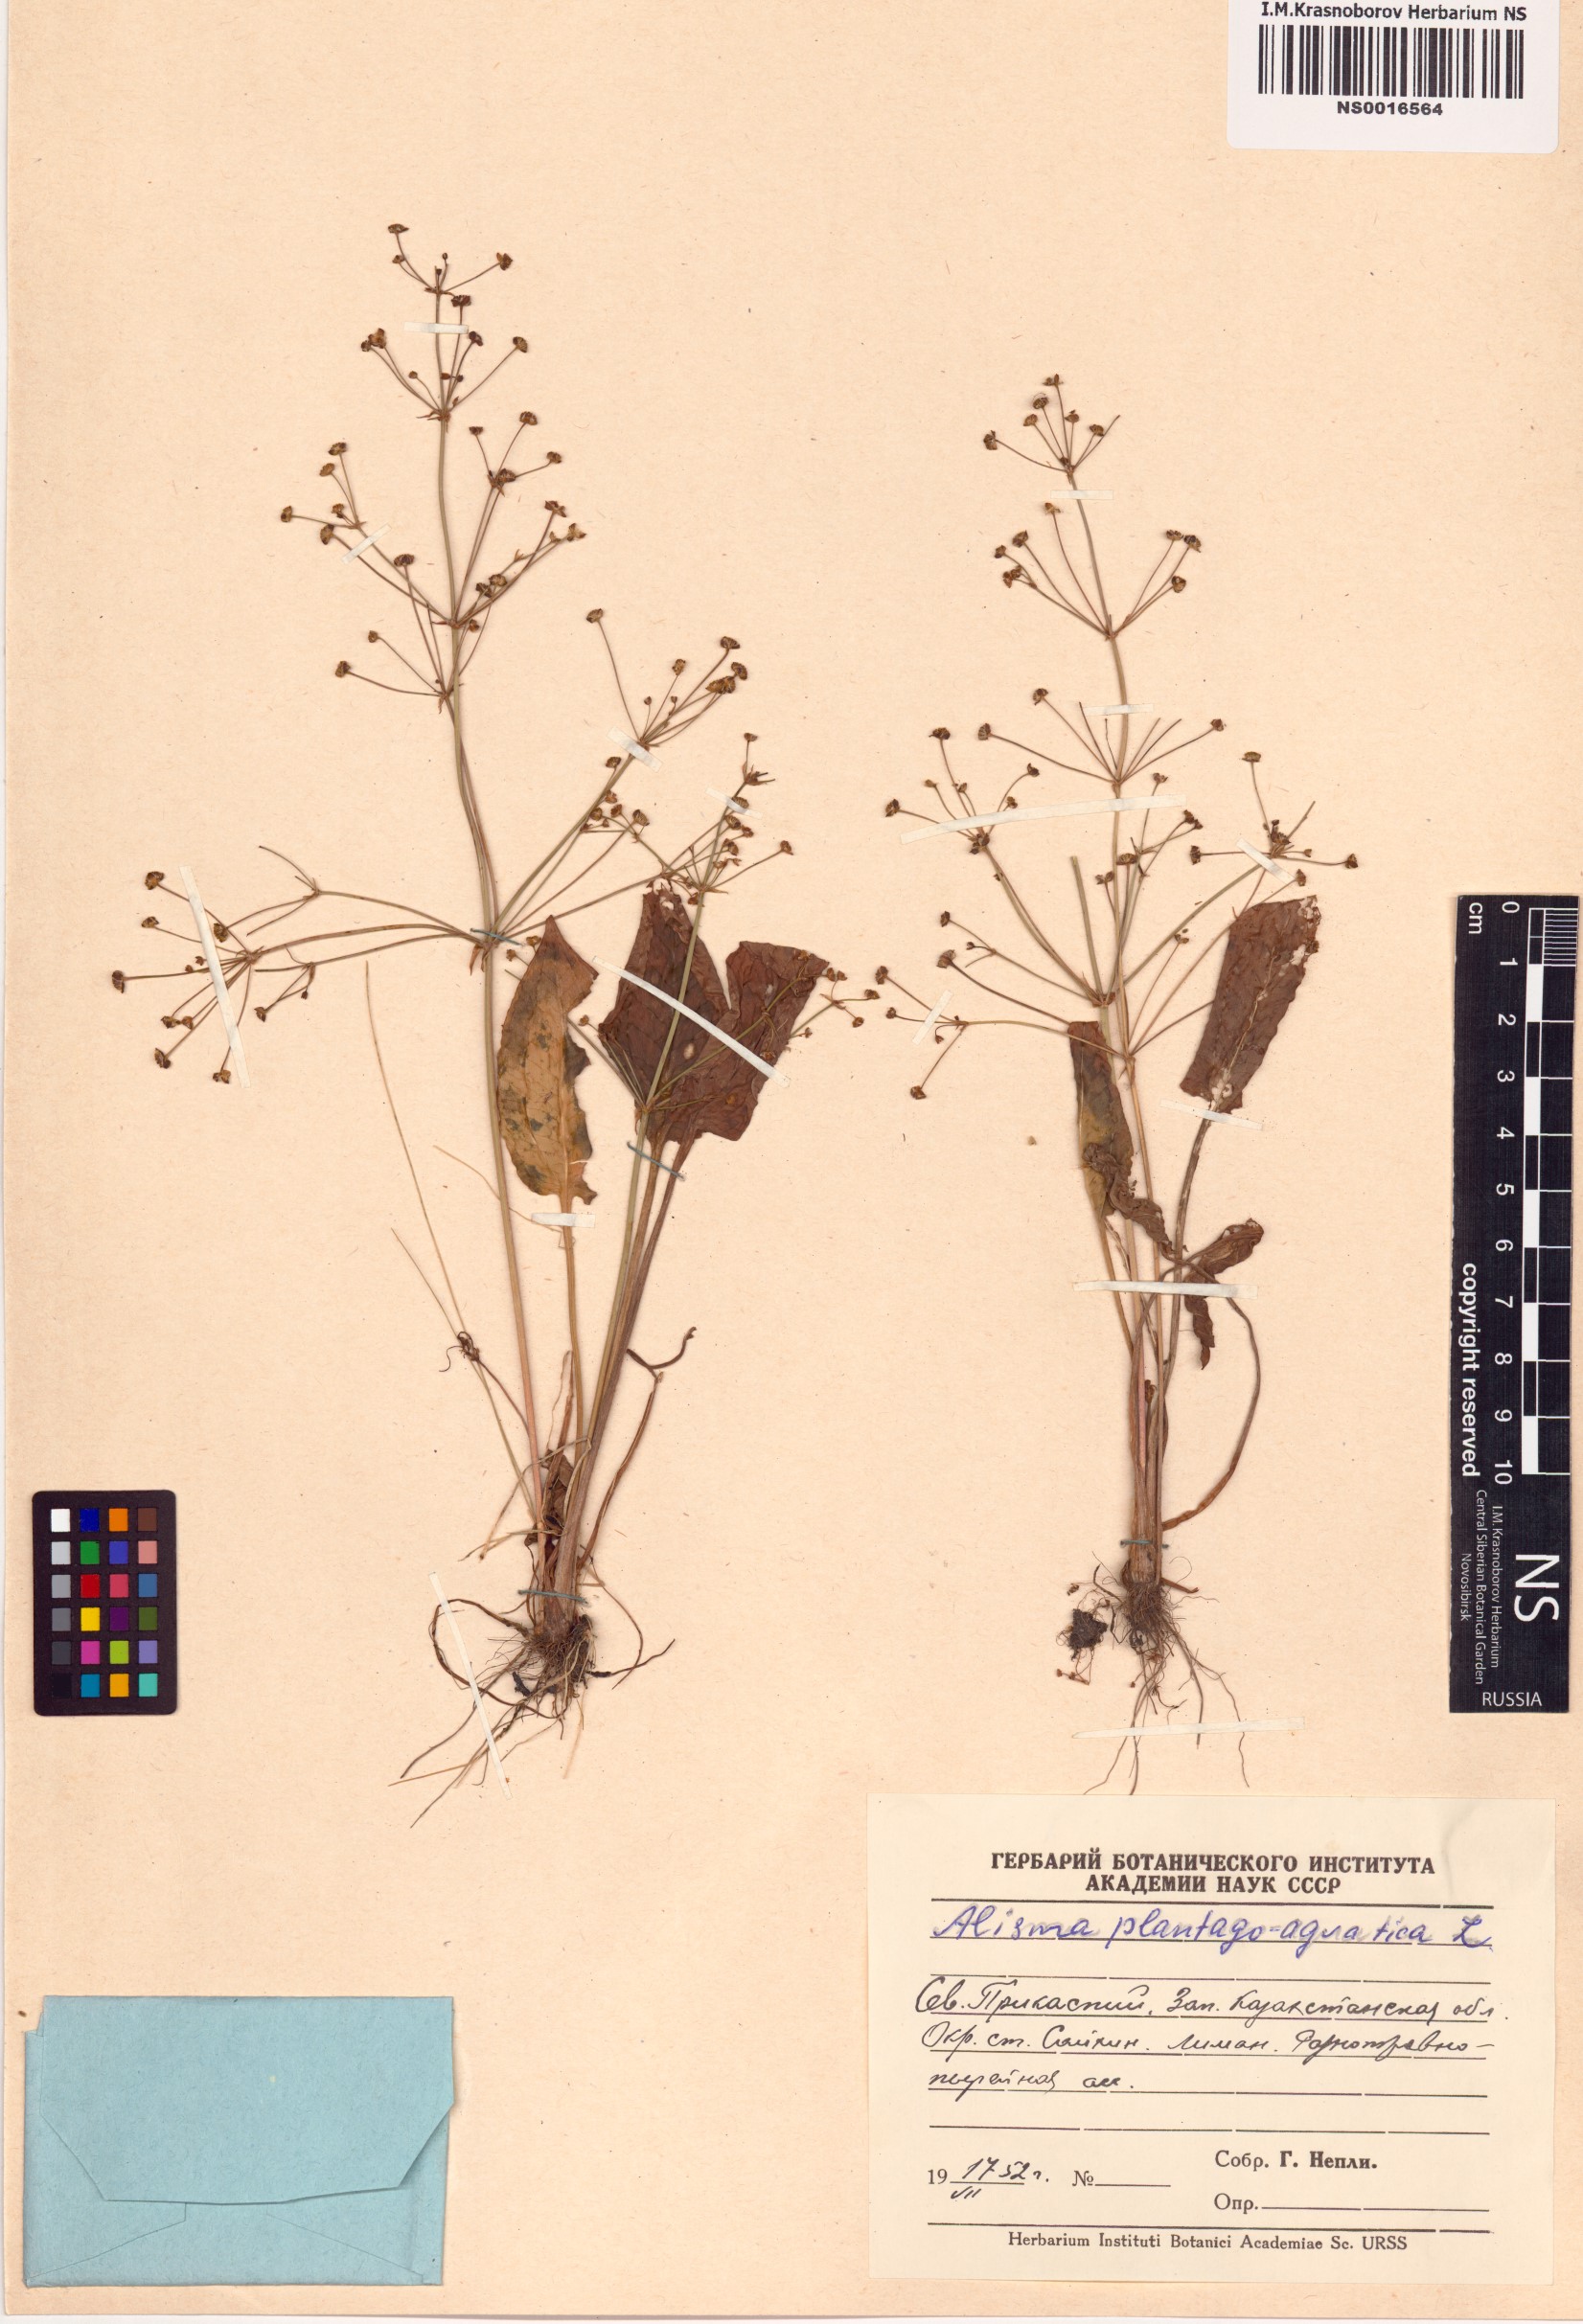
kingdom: Plantae
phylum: Tracheophyta
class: Liliopsida
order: Alismatales
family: Alismataceae
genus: Alisma
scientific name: Alisma plantago-aquatica
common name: Water-plantain
